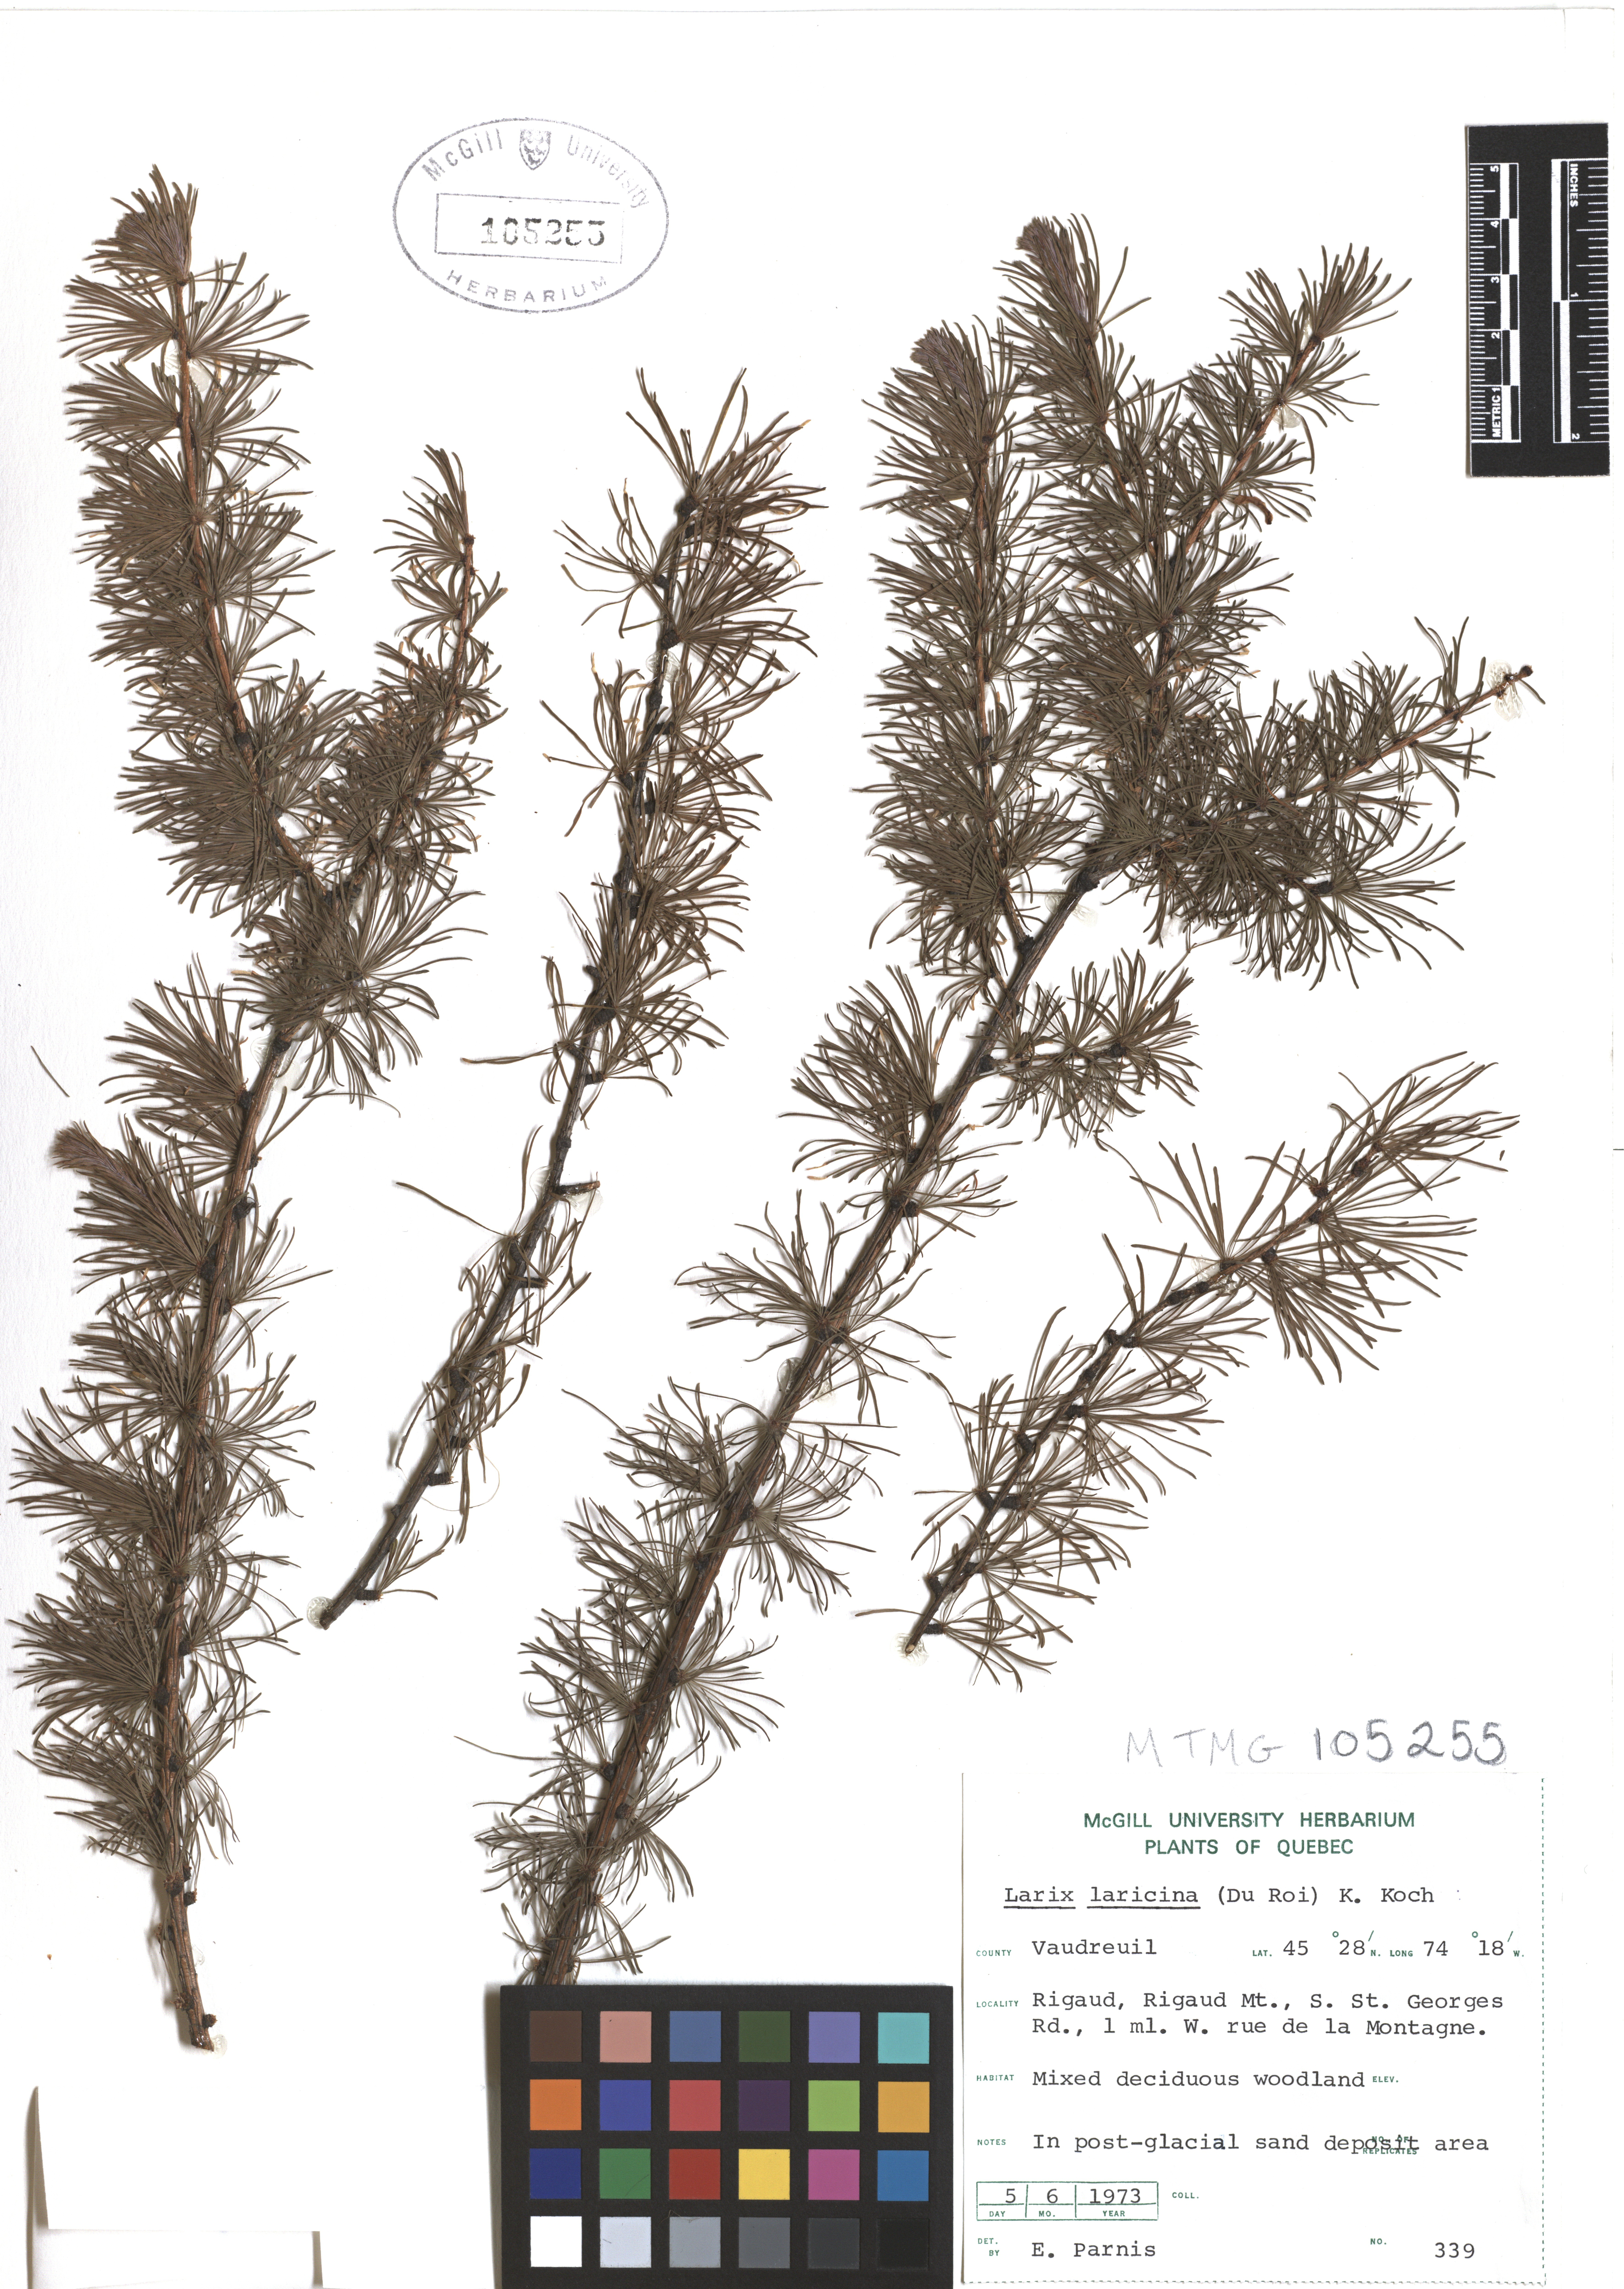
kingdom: Plantae
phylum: Tracheophyta
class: Pinopsida
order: Pinales
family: Pinaceae
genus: Larix
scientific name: Larix laricina
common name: American larch
